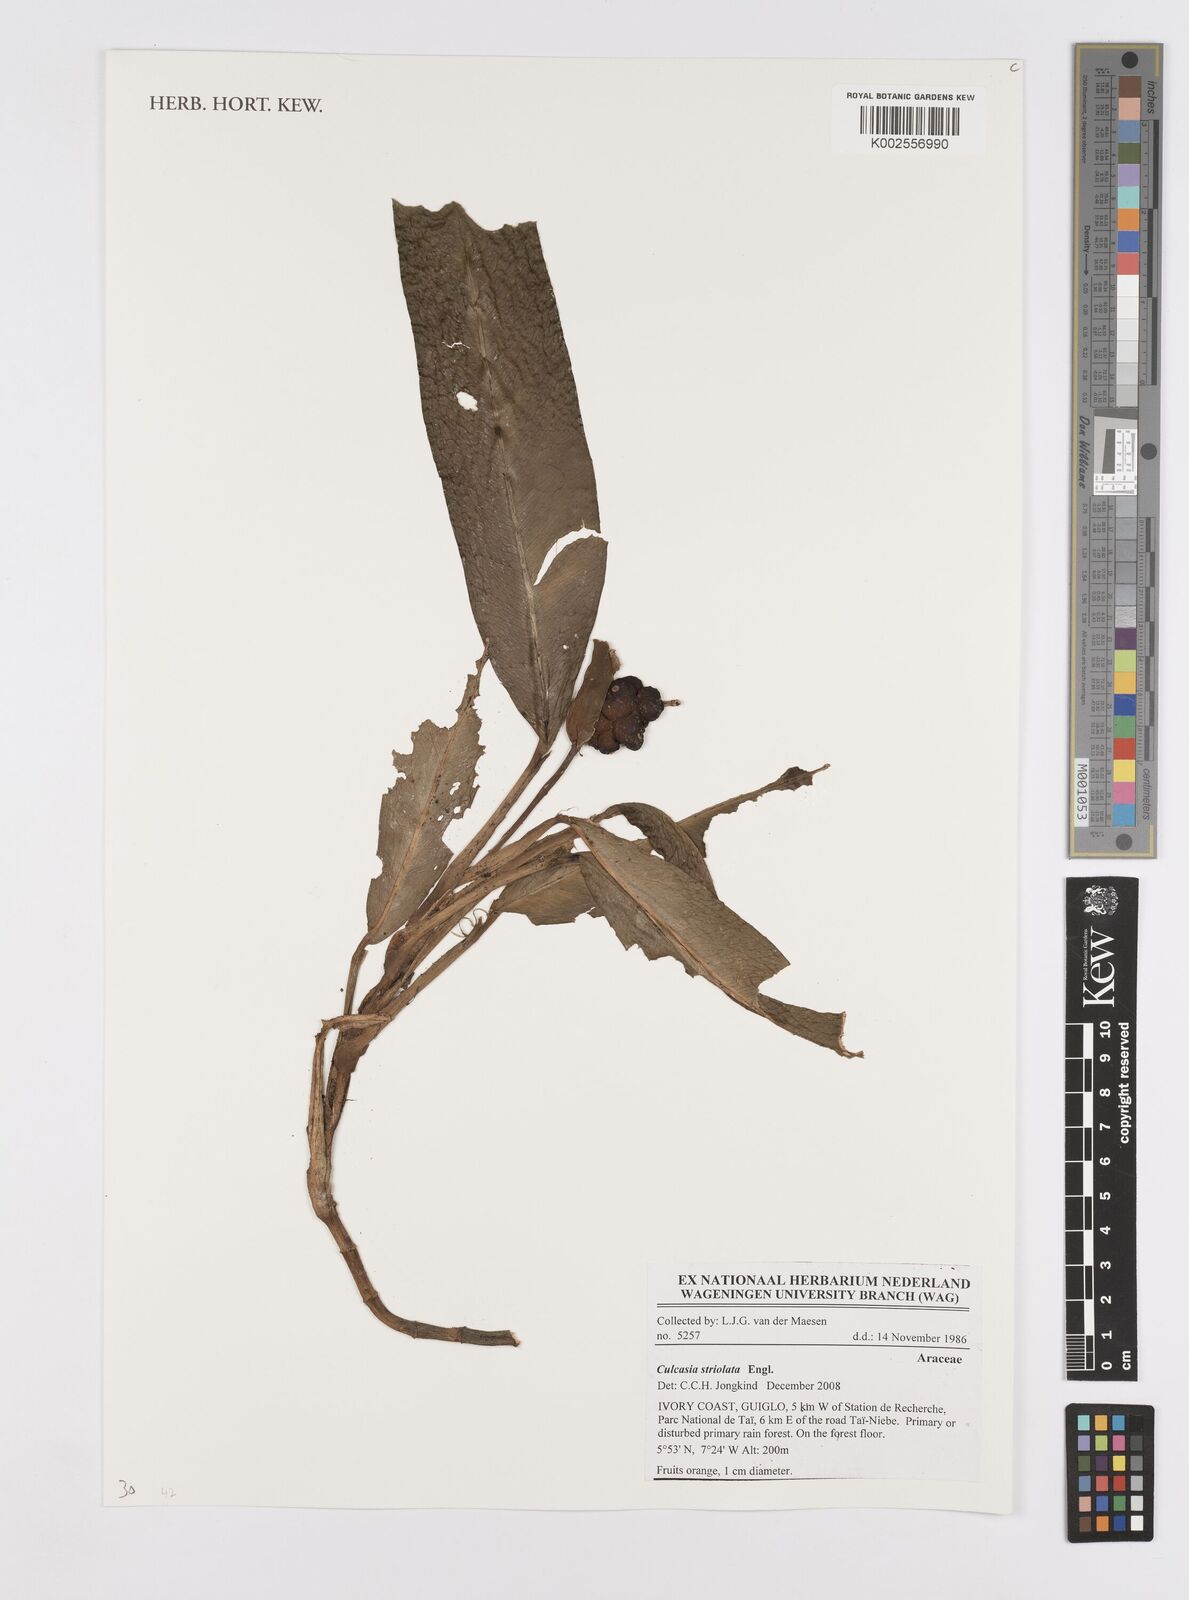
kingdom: Plantae
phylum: Tracheophyta
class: Liliopsida
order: Alismatales
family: Araceae
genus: Culcasia
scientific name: Culcasia striolata
